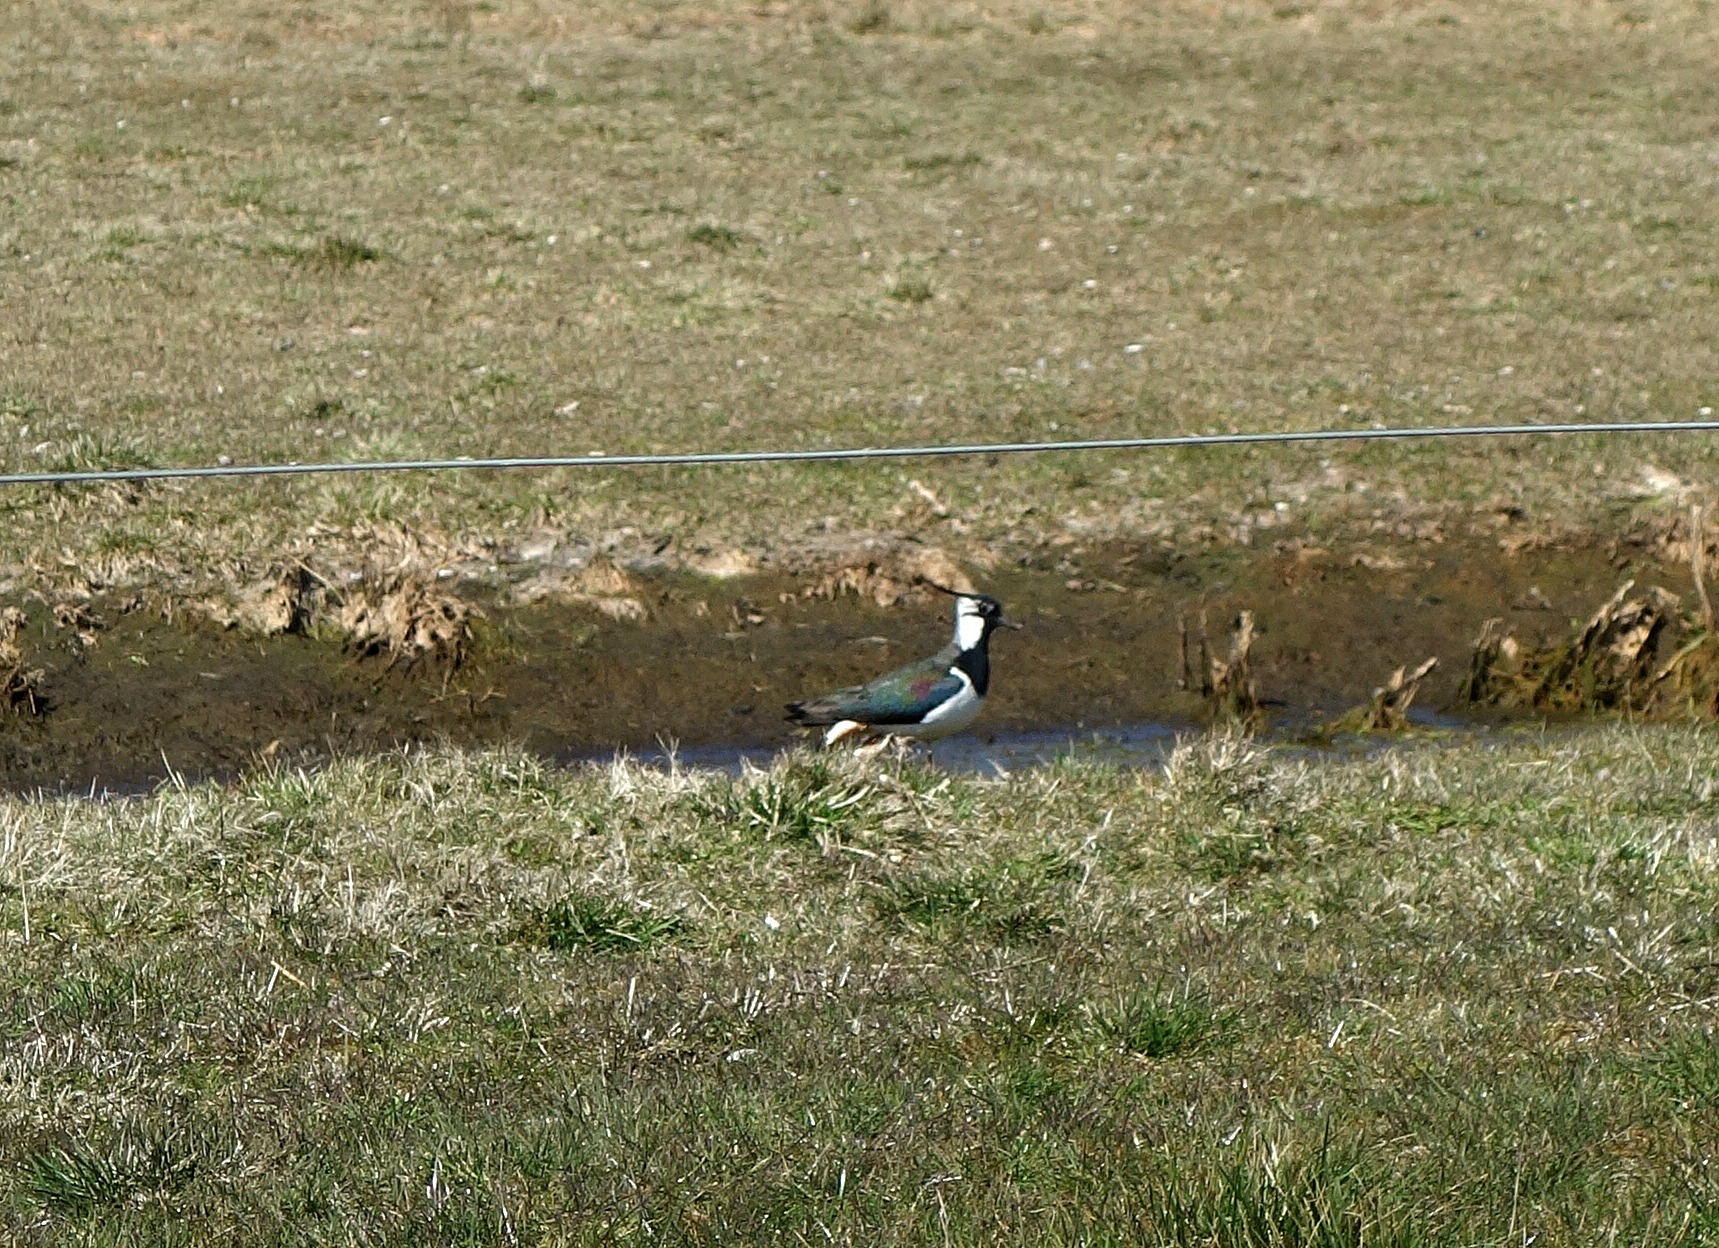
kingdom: Animalia
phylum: Chordata
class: Aves
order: Charadriiformes
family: Charadriidae
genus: Vanellus
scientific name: Vanellus vanellus
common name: Vibe
